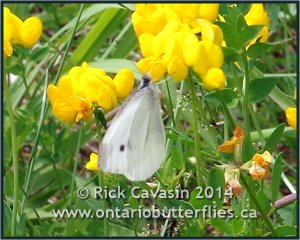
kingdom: Animalia
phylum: Arthropoda
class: Insecta
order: Lepidoptera
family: Pieridae
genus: Pieris
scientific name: Pieris rapae
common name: Cabbage White
